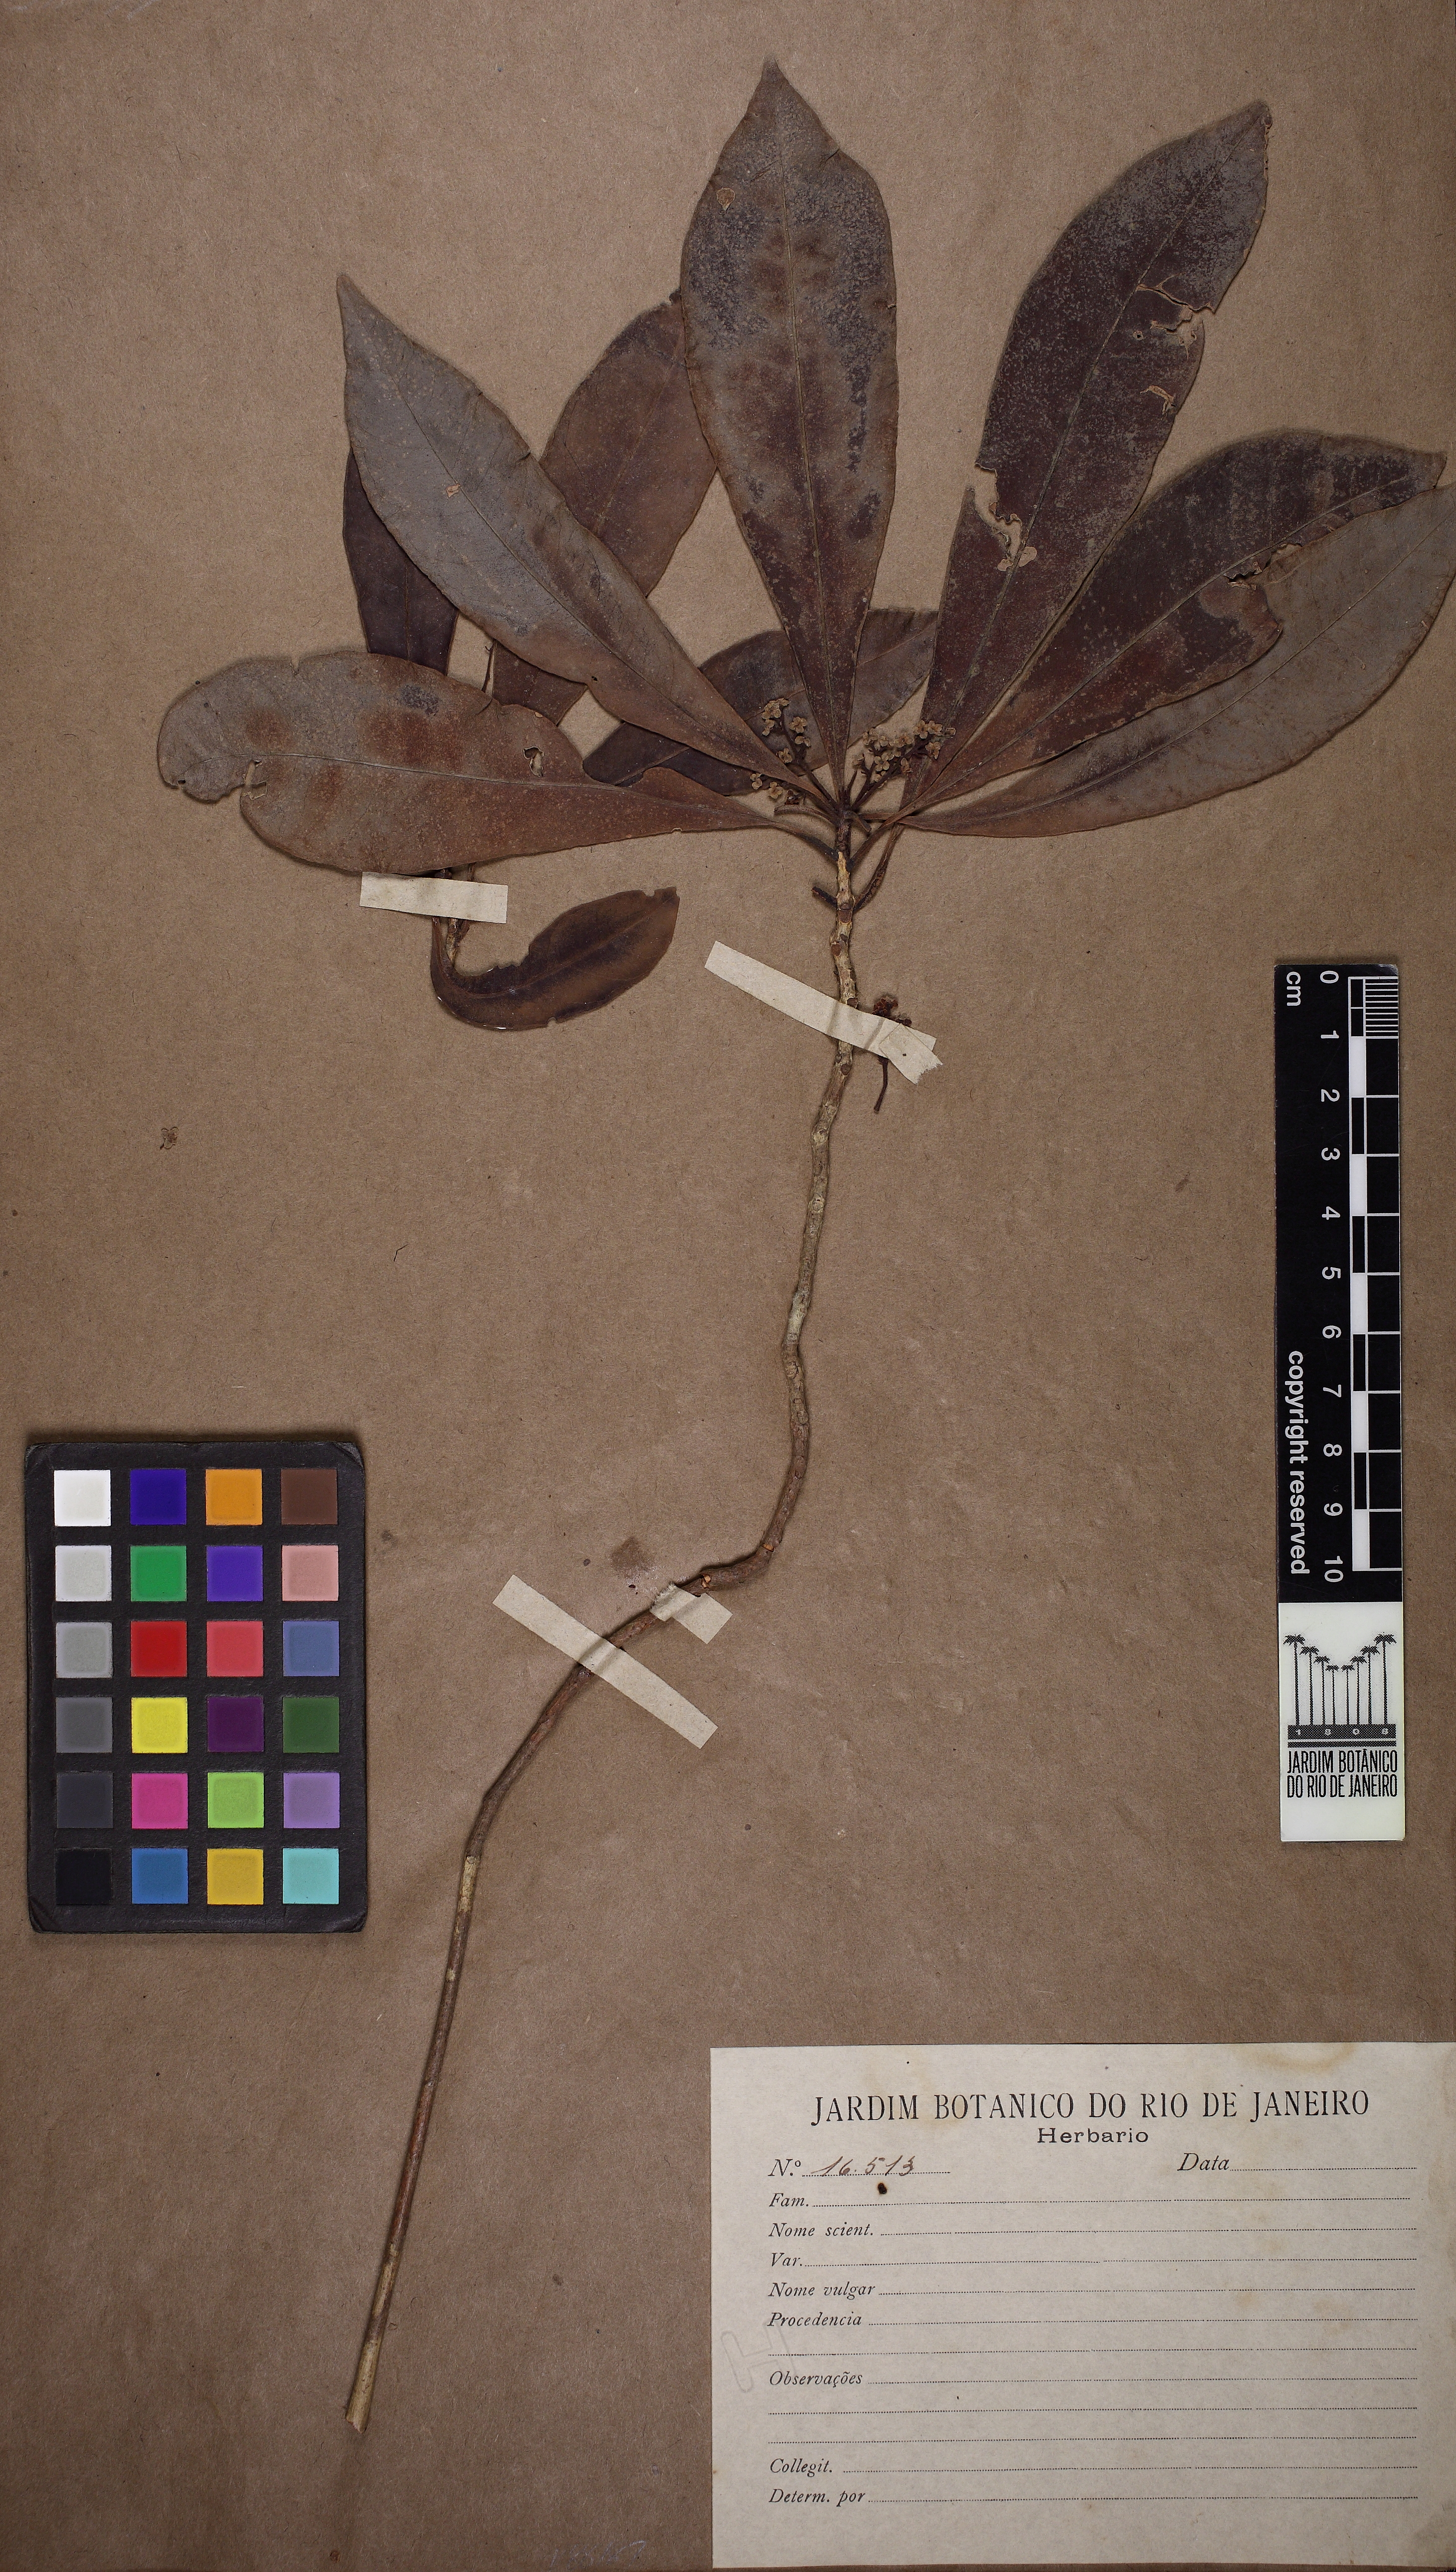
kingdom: Plantae
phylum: Tracheophyta
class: Magnoliopsida
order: Ericales
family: Primulaceae
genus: Cybianthus
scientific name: Cybianthus pastensis
